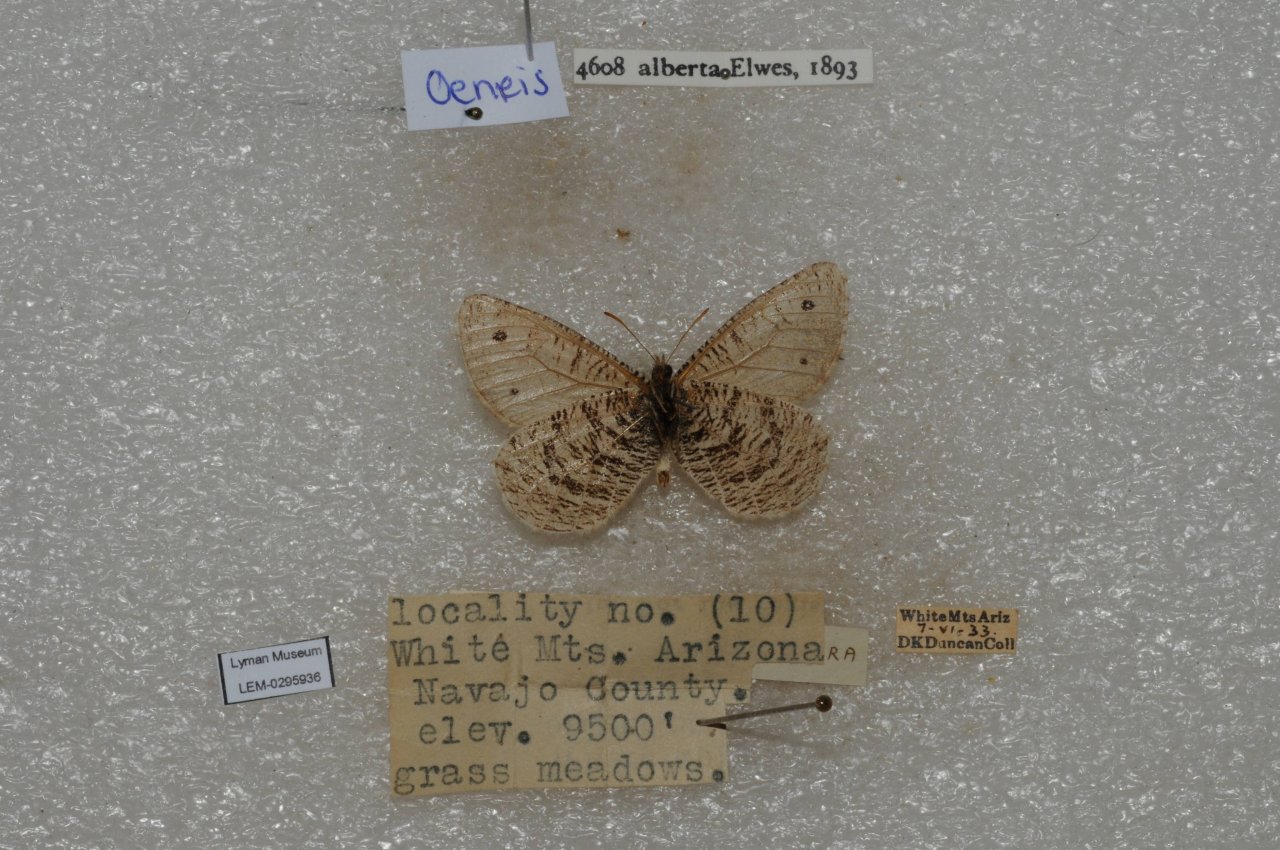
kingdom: Animalia
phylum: Arthropoda
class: Insecta
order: Lepidoptera
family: Nymphalidae
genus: Oeneis
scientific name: Oeneis alberta
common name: Alberta Arctic
